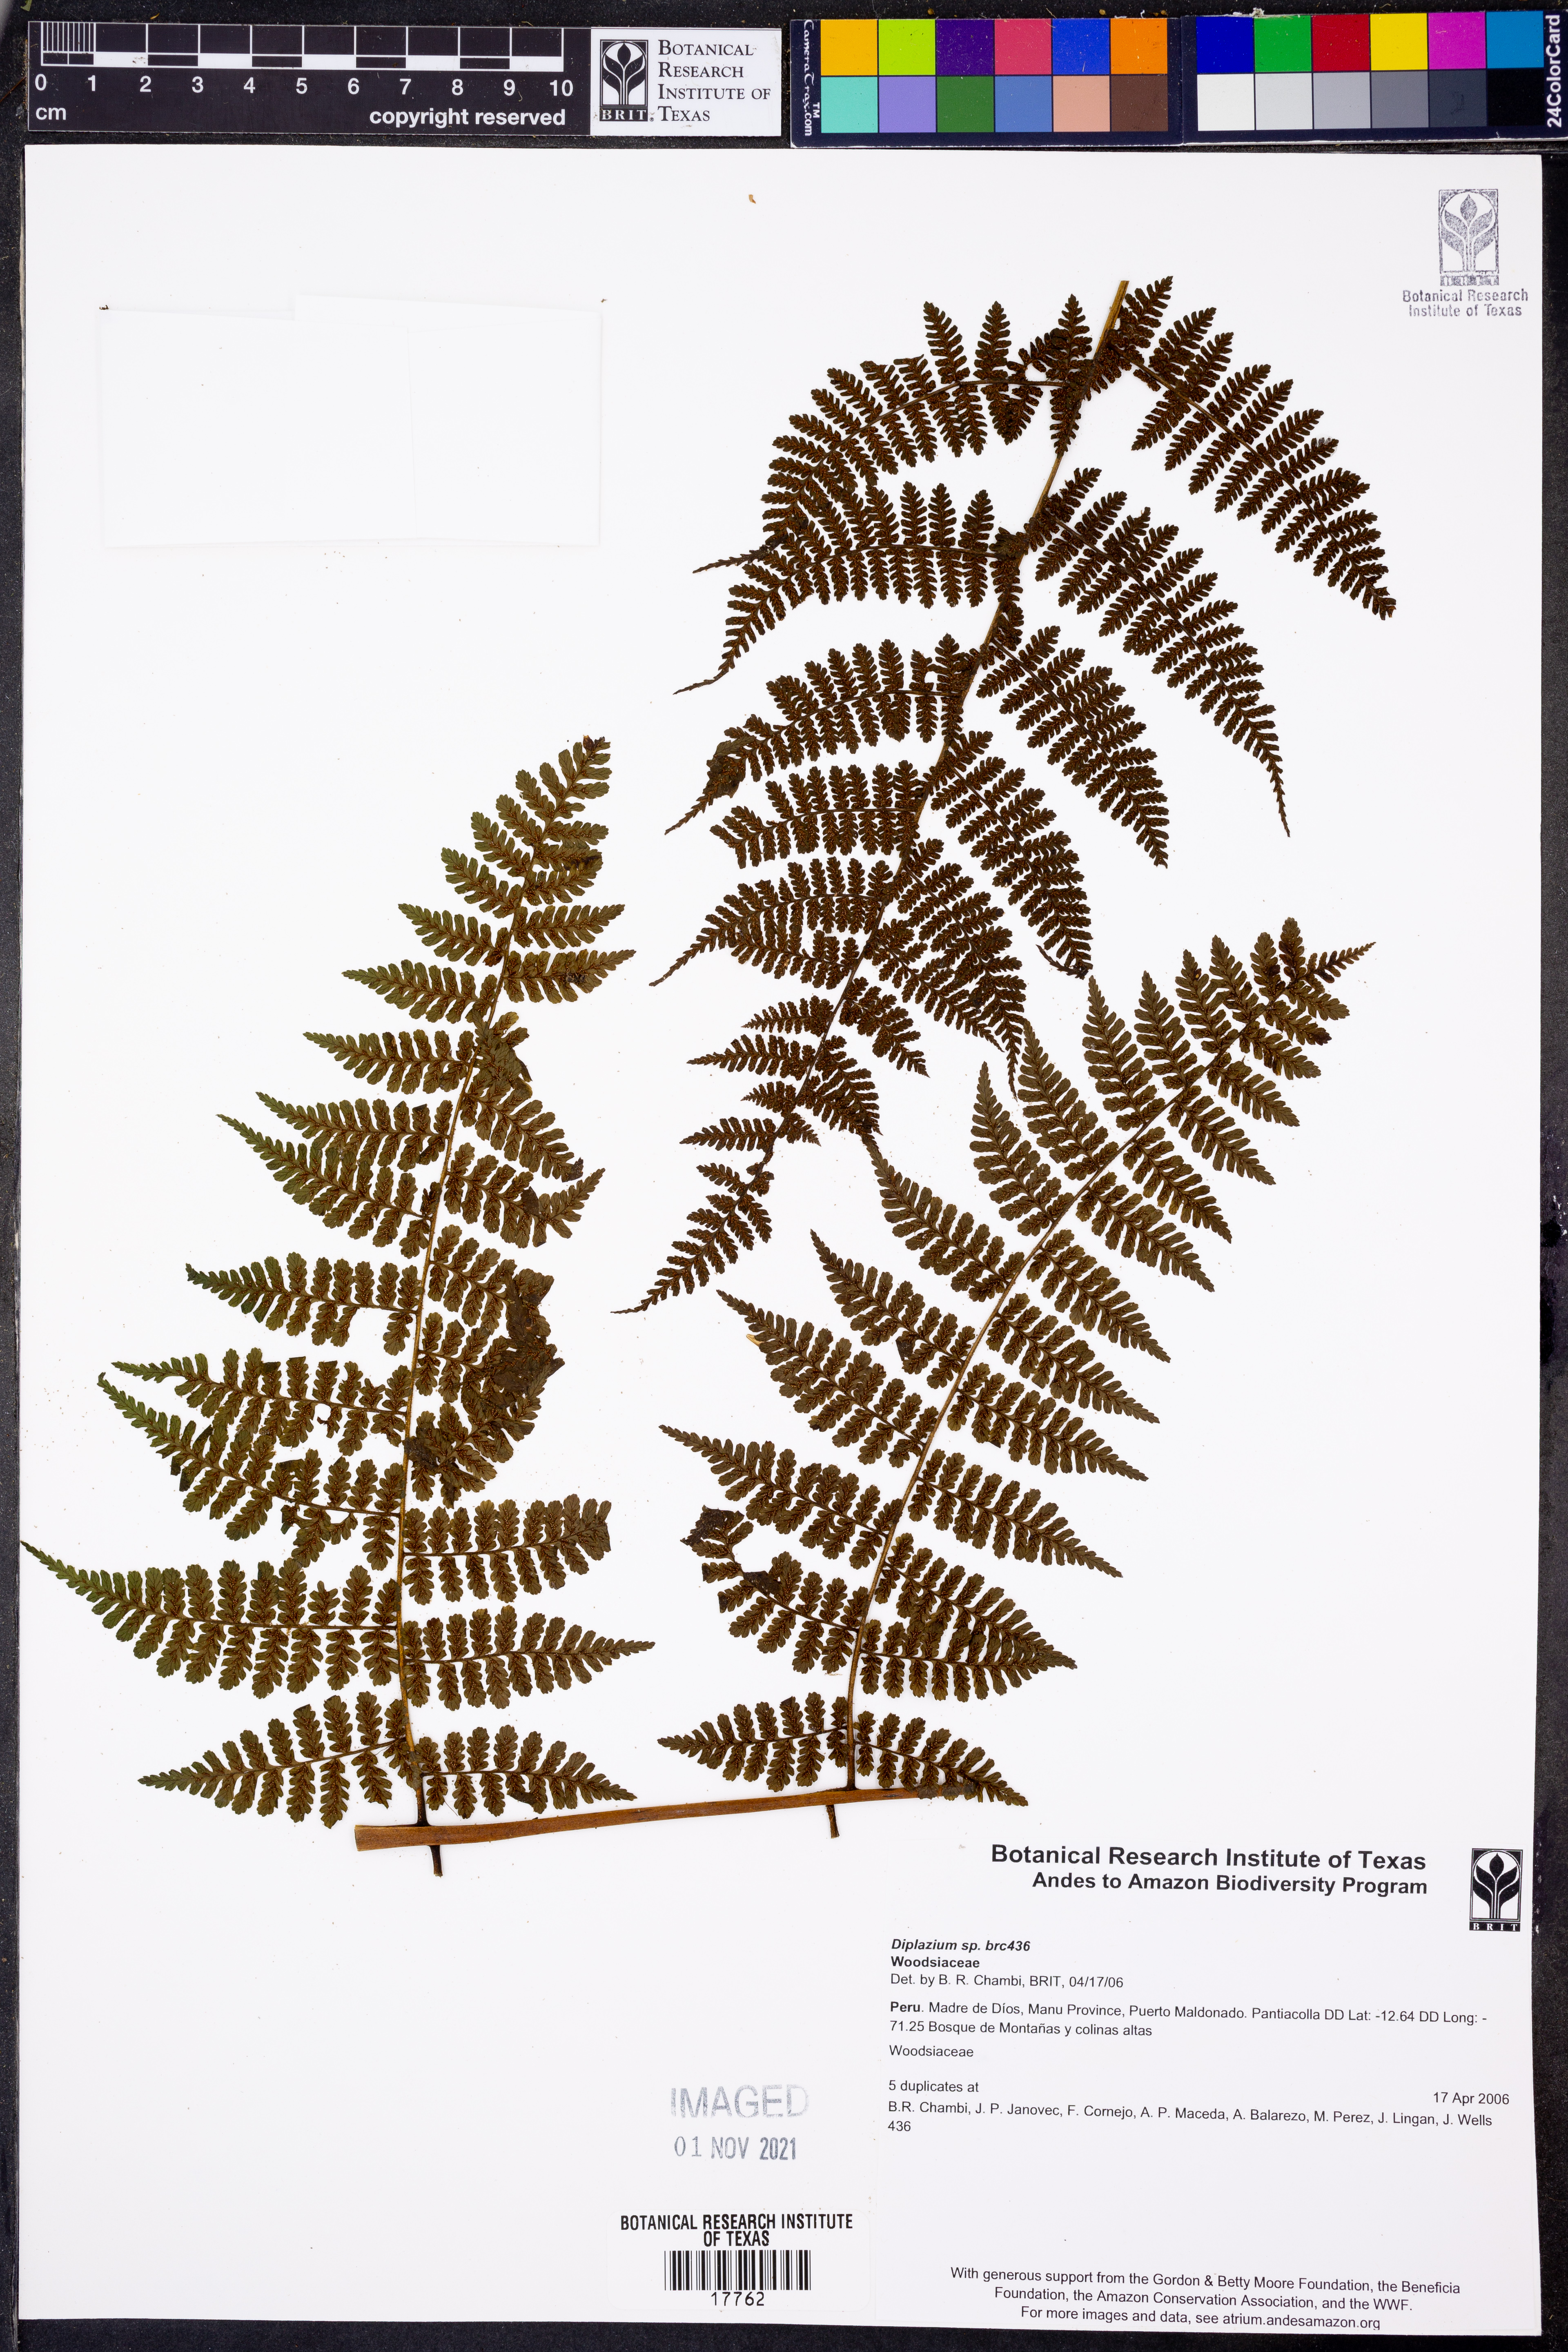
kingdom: Plantae
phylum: Tracheophyta
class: Polypodiopsida
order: Polypodiales
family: Athyriaceae
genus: Diplazium
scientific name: Diplazium alienum
